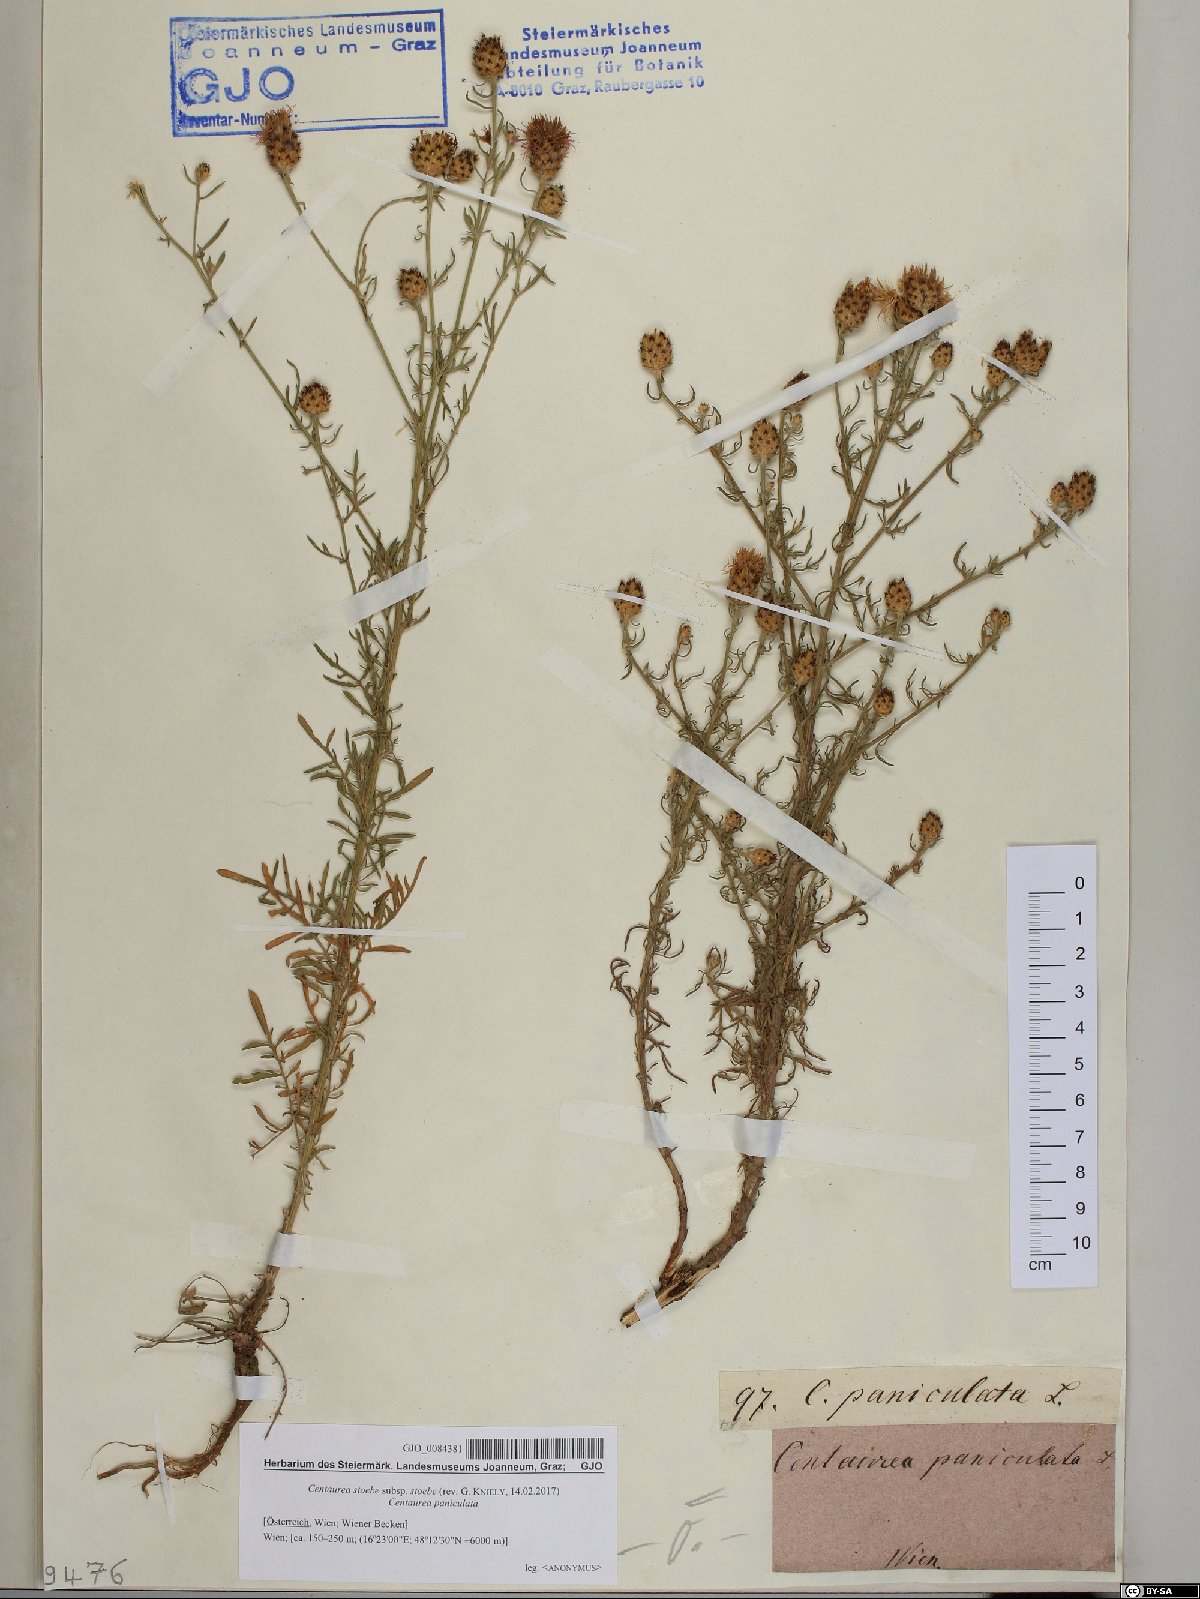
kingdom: Plantae
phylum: Tracheophyta
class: Magnoliopsida
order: Asterales
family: Asteraceae
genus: Centaurea
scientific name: Centaurea stoebe
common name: Spotted knapweed
